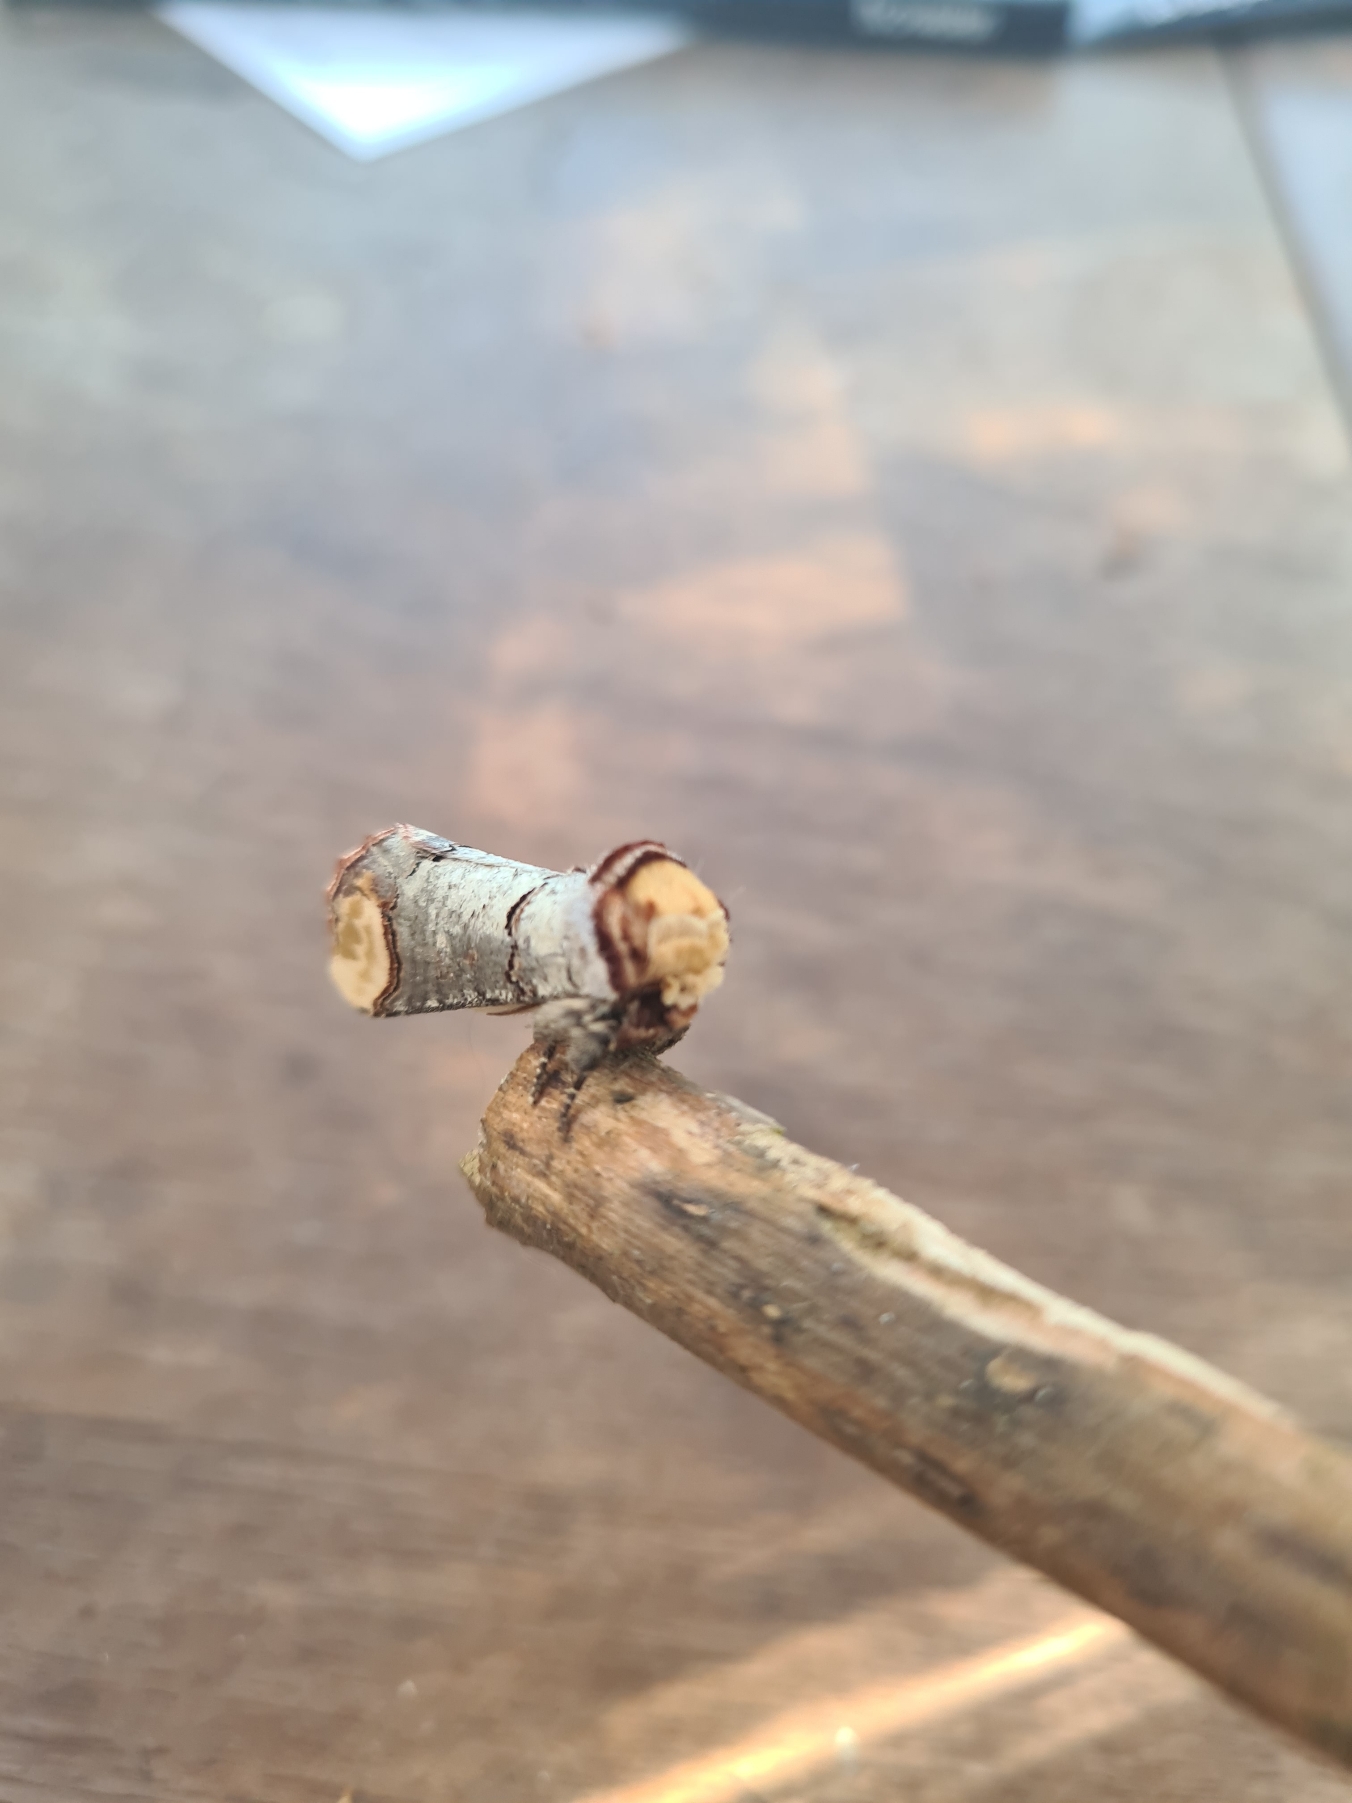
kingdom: Animalia
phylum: Arthropoda
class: Insecta
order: Lepidoptera
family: Notodontidae
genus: Phalera
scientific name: Phalera bucephala
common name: Måneplet
